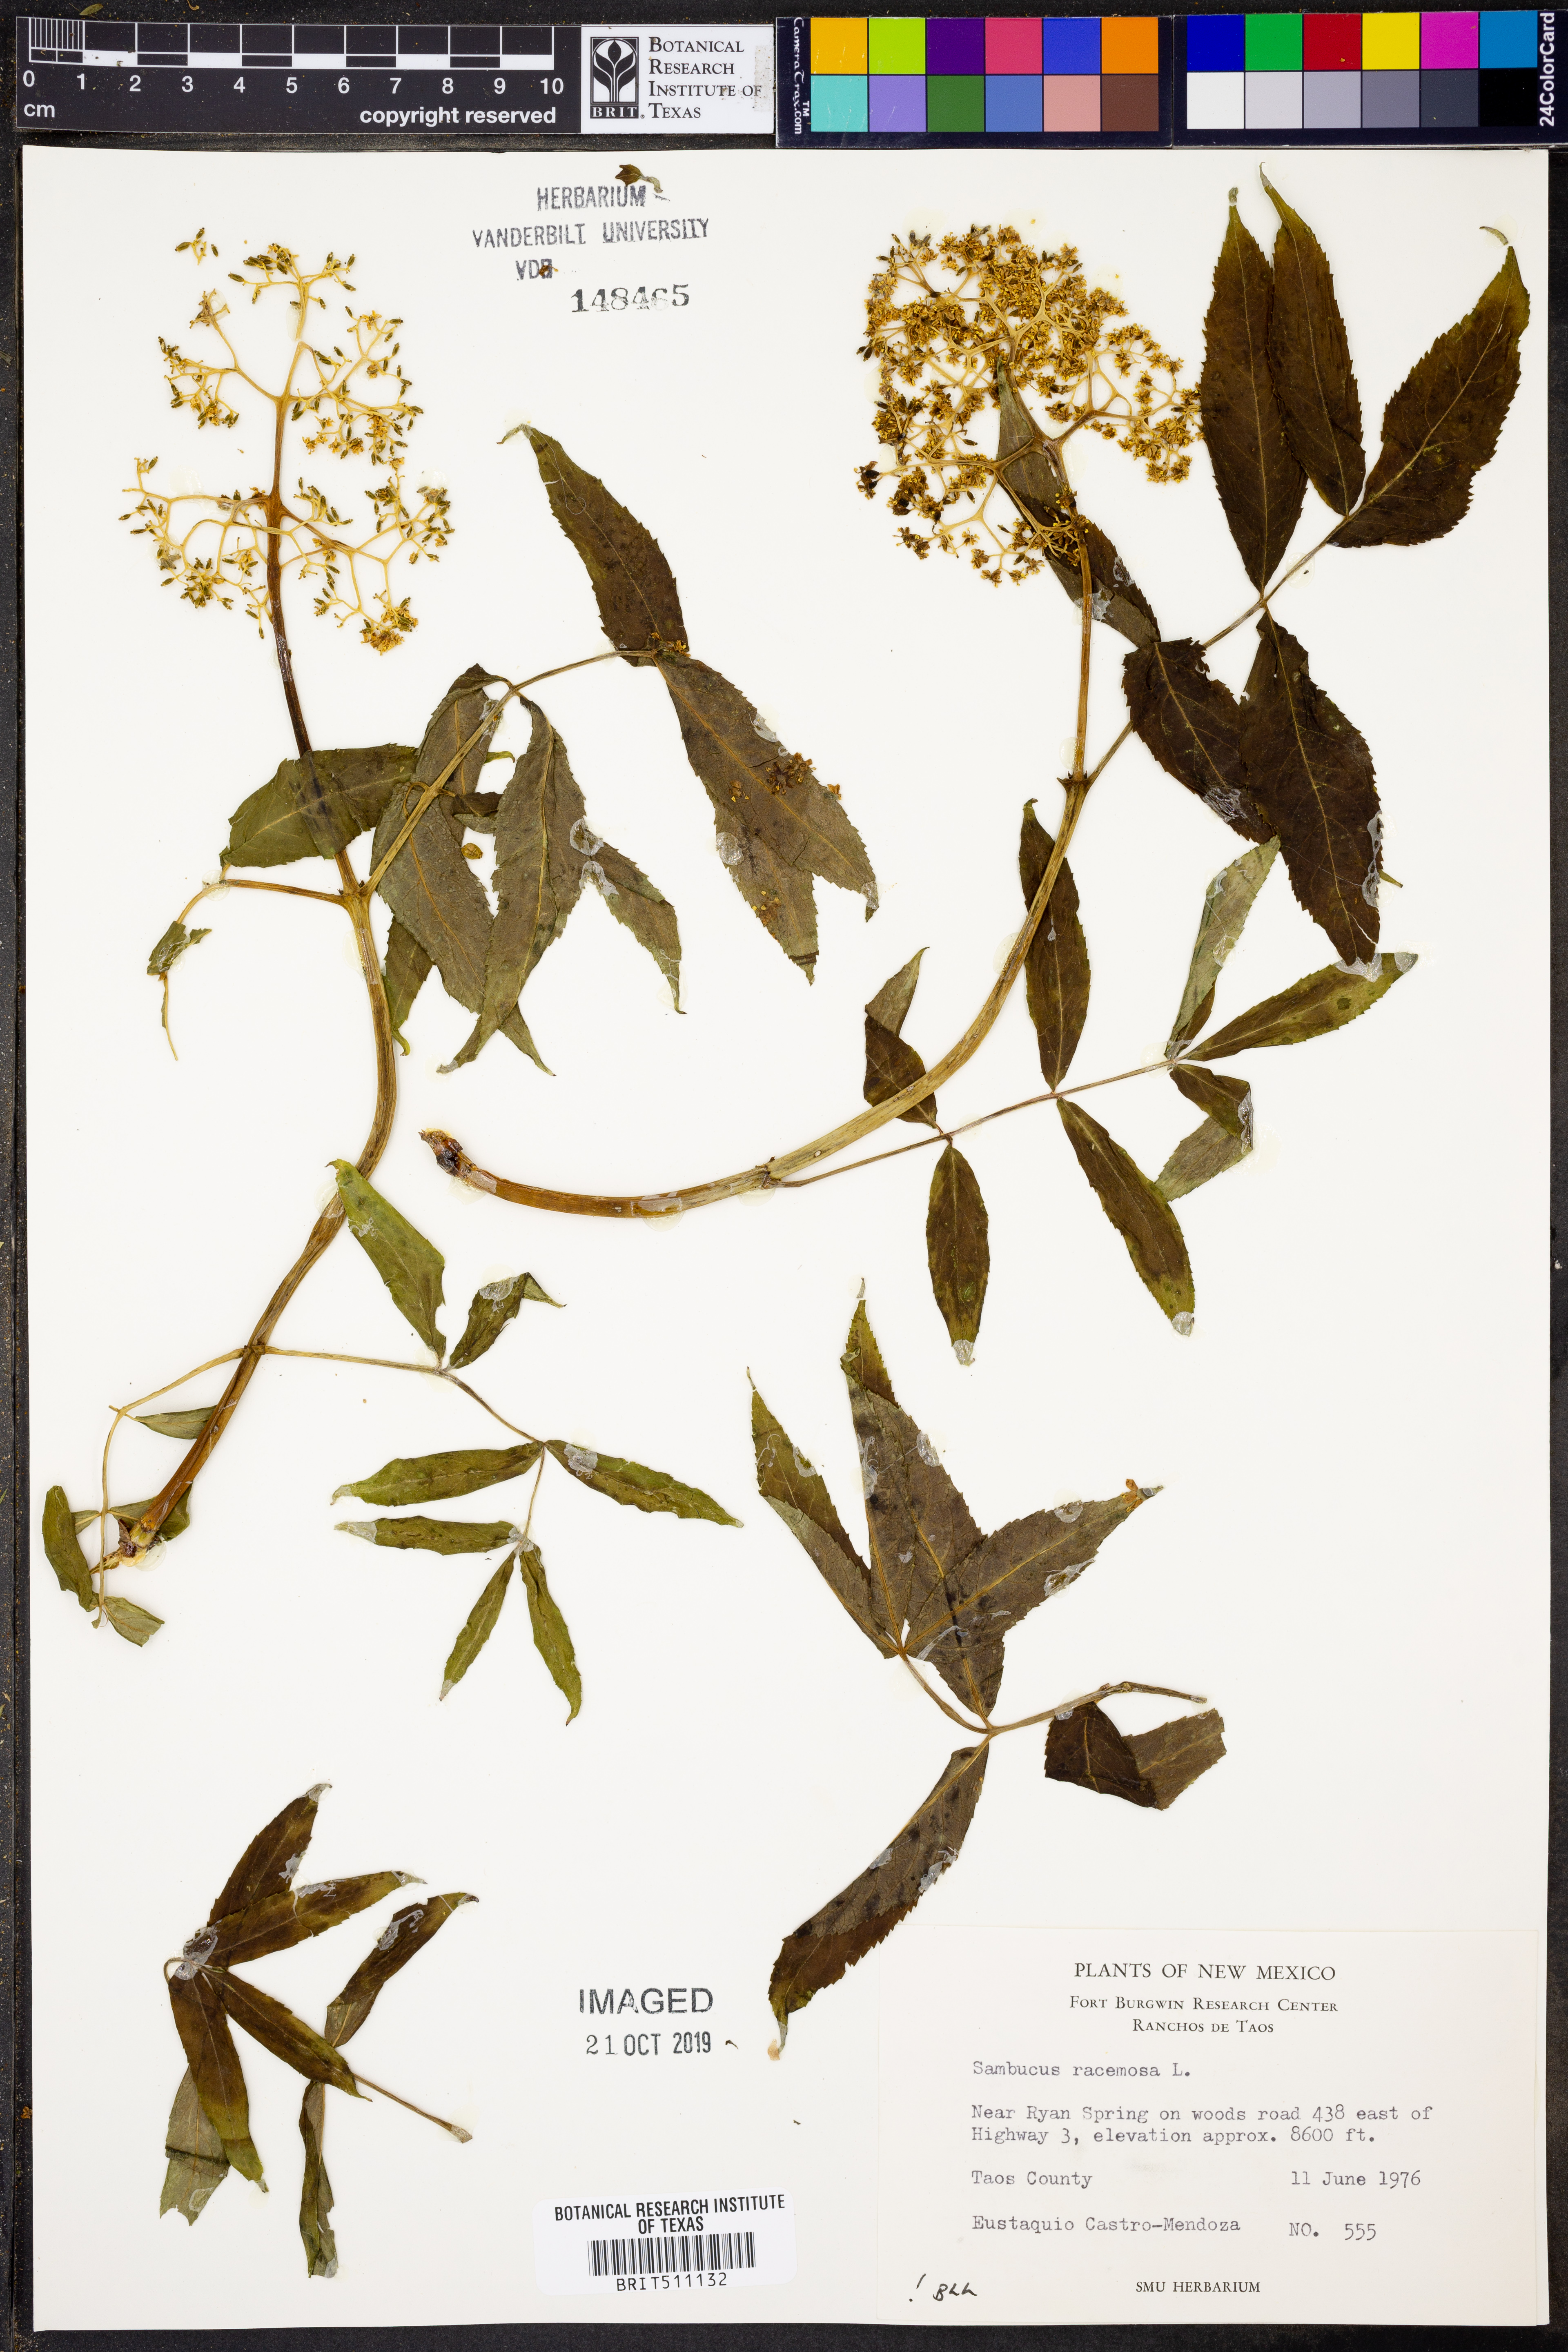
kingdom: Plantae
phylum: Tracheophyta
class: Magnoliopsida
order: Dipsacales
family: Viburnaceae
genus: Sambucus
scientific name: Sambucus racemosa
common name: Red-berried elder
